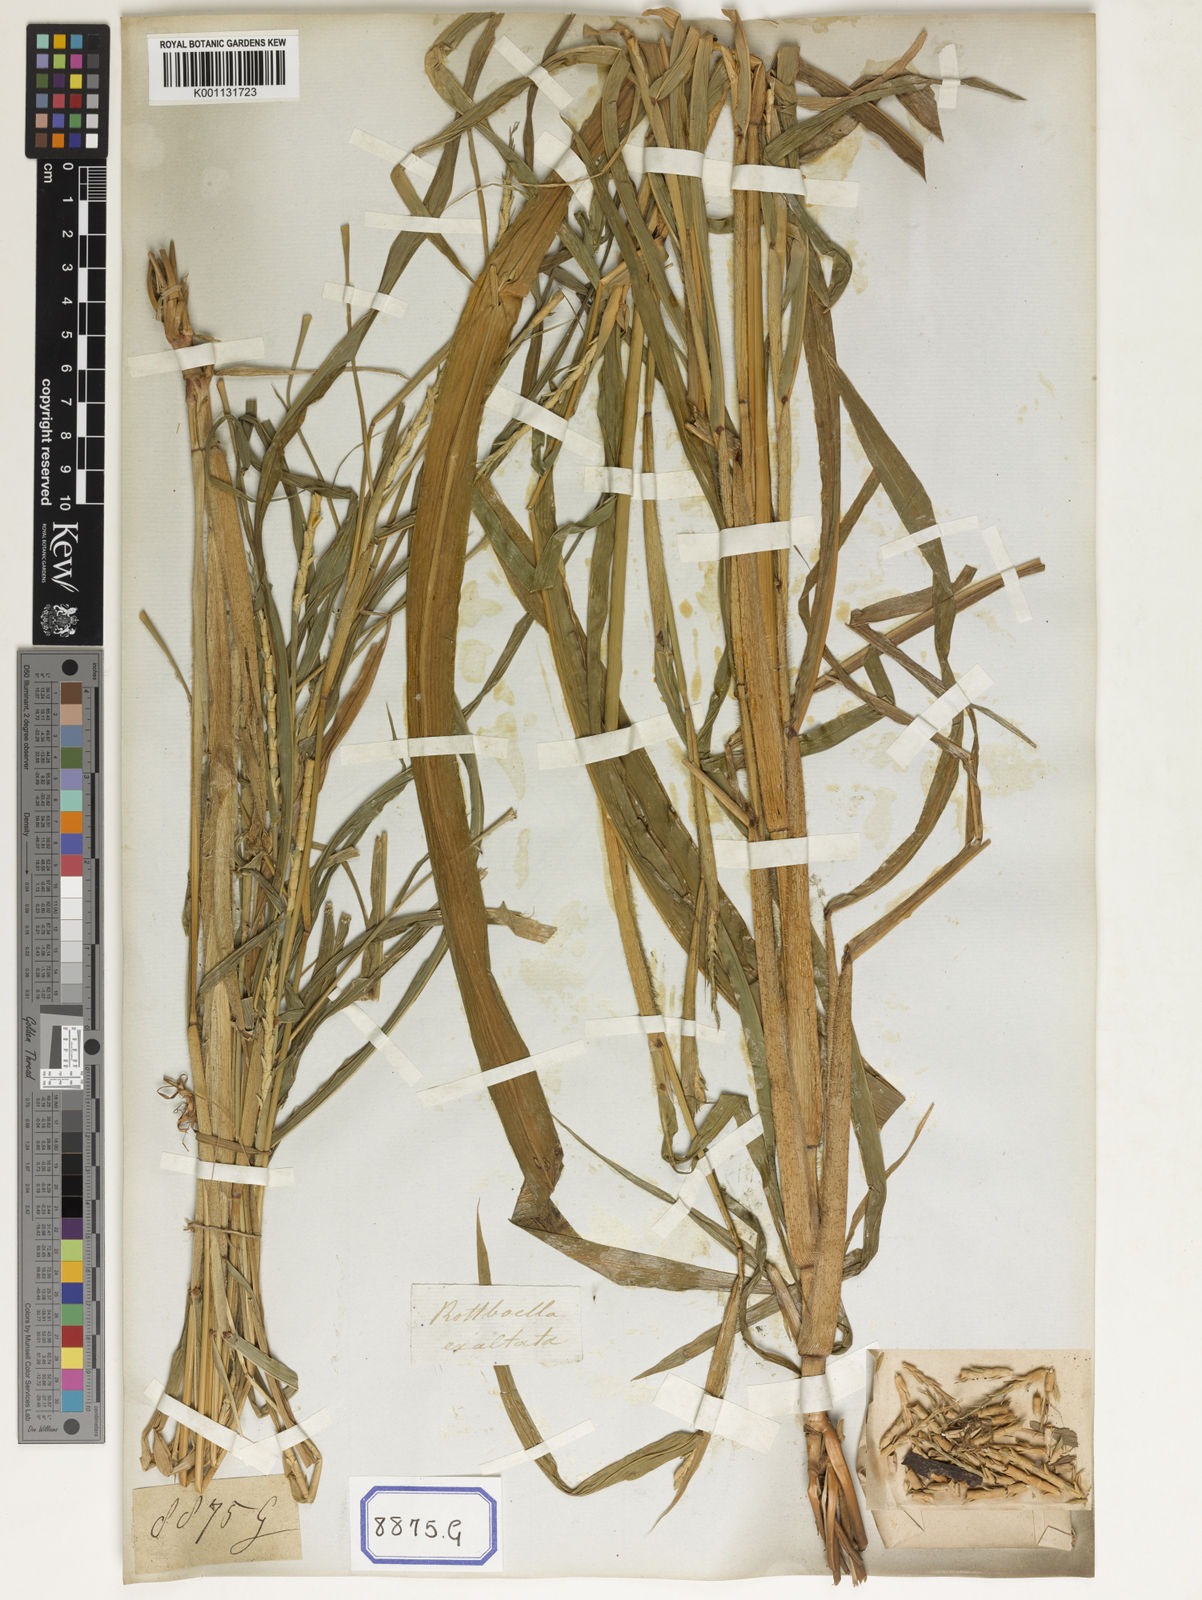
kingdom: Plantae
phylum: Tracheophyta
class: Liliopsida
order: Poales
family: Poaceae
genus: Ophiuros
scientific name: Ophiuros exaltatus
